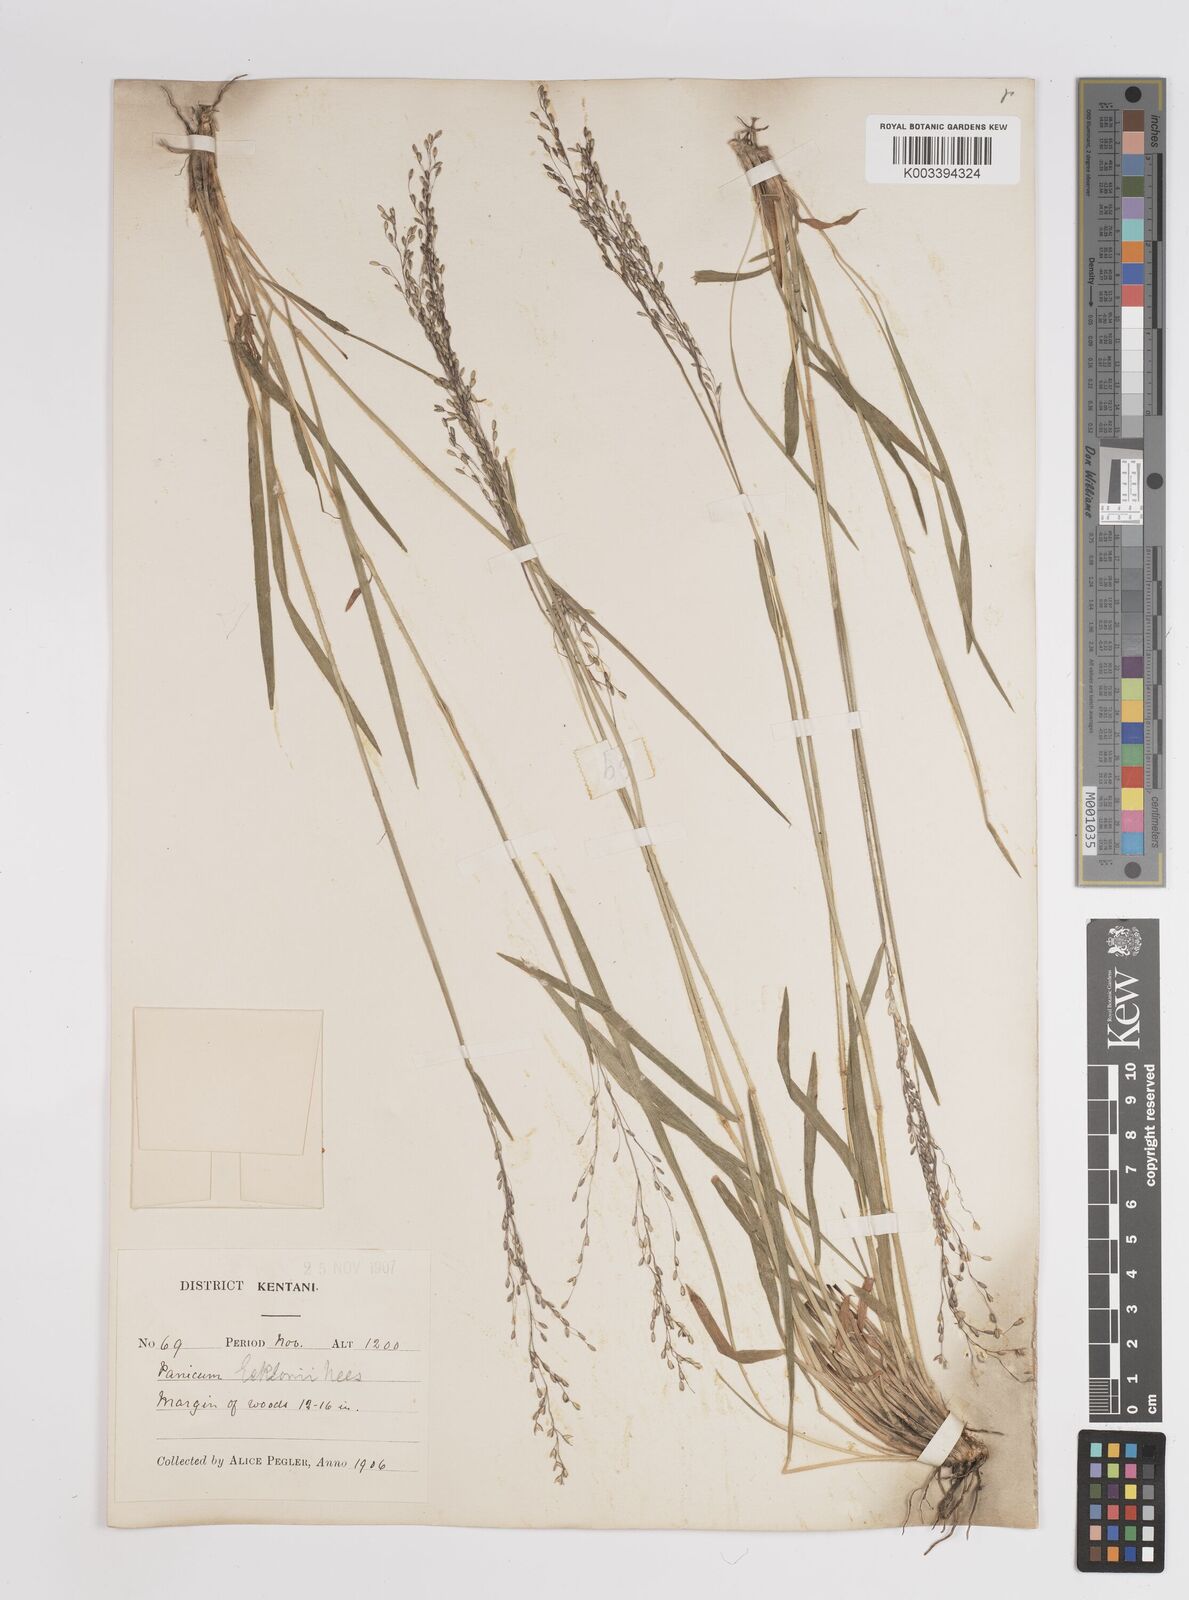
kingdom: Plantae
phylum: Tracheophyta
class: Liliopsida
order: Poales
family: Poaceae
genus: Adenochloa
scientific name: Adenochloa ecklonii
